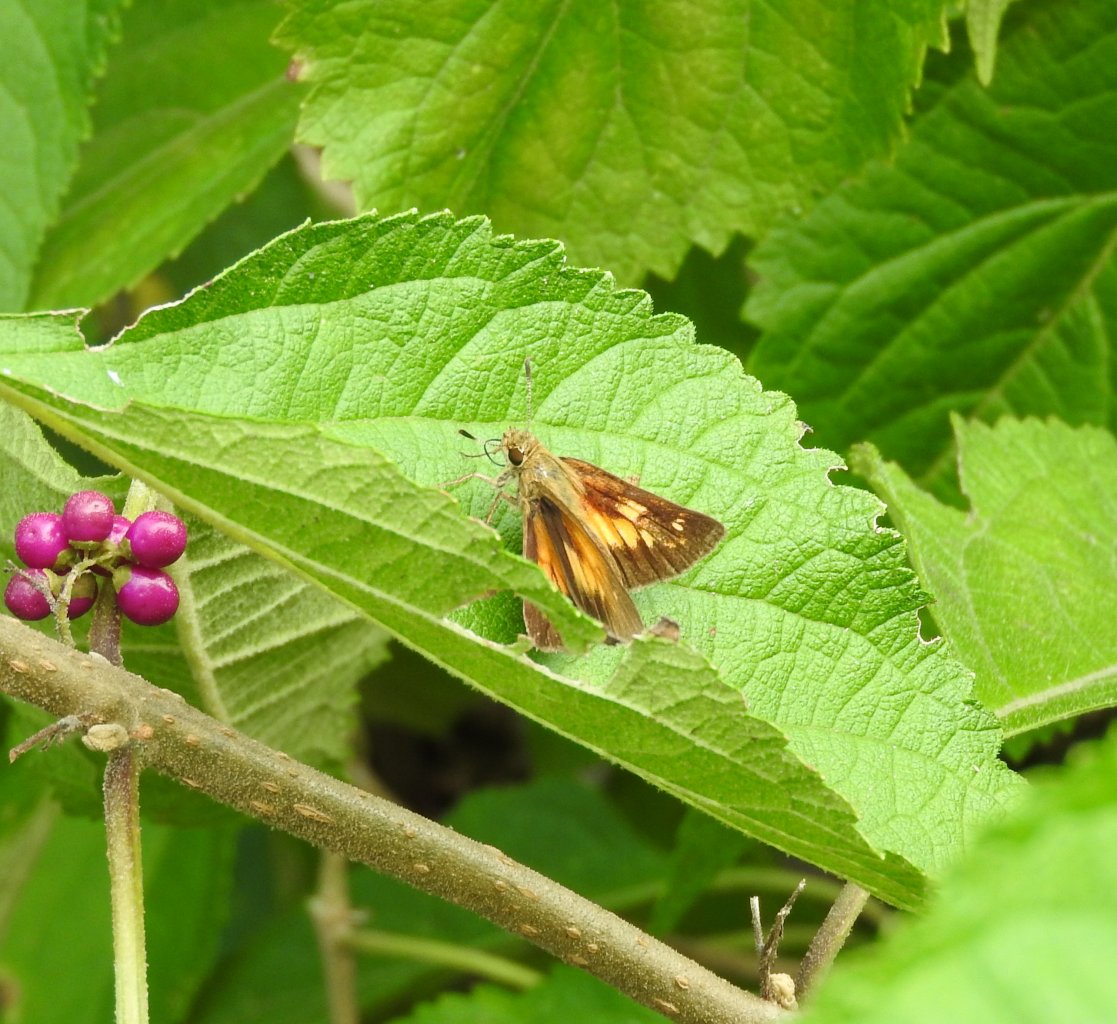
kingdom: Animalia
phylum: Arthropoda
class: Insecta
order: Lepidoptera
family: Hesperiidae
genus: Poanes
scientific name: Poanes viator
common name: Broad-winged Skipper
